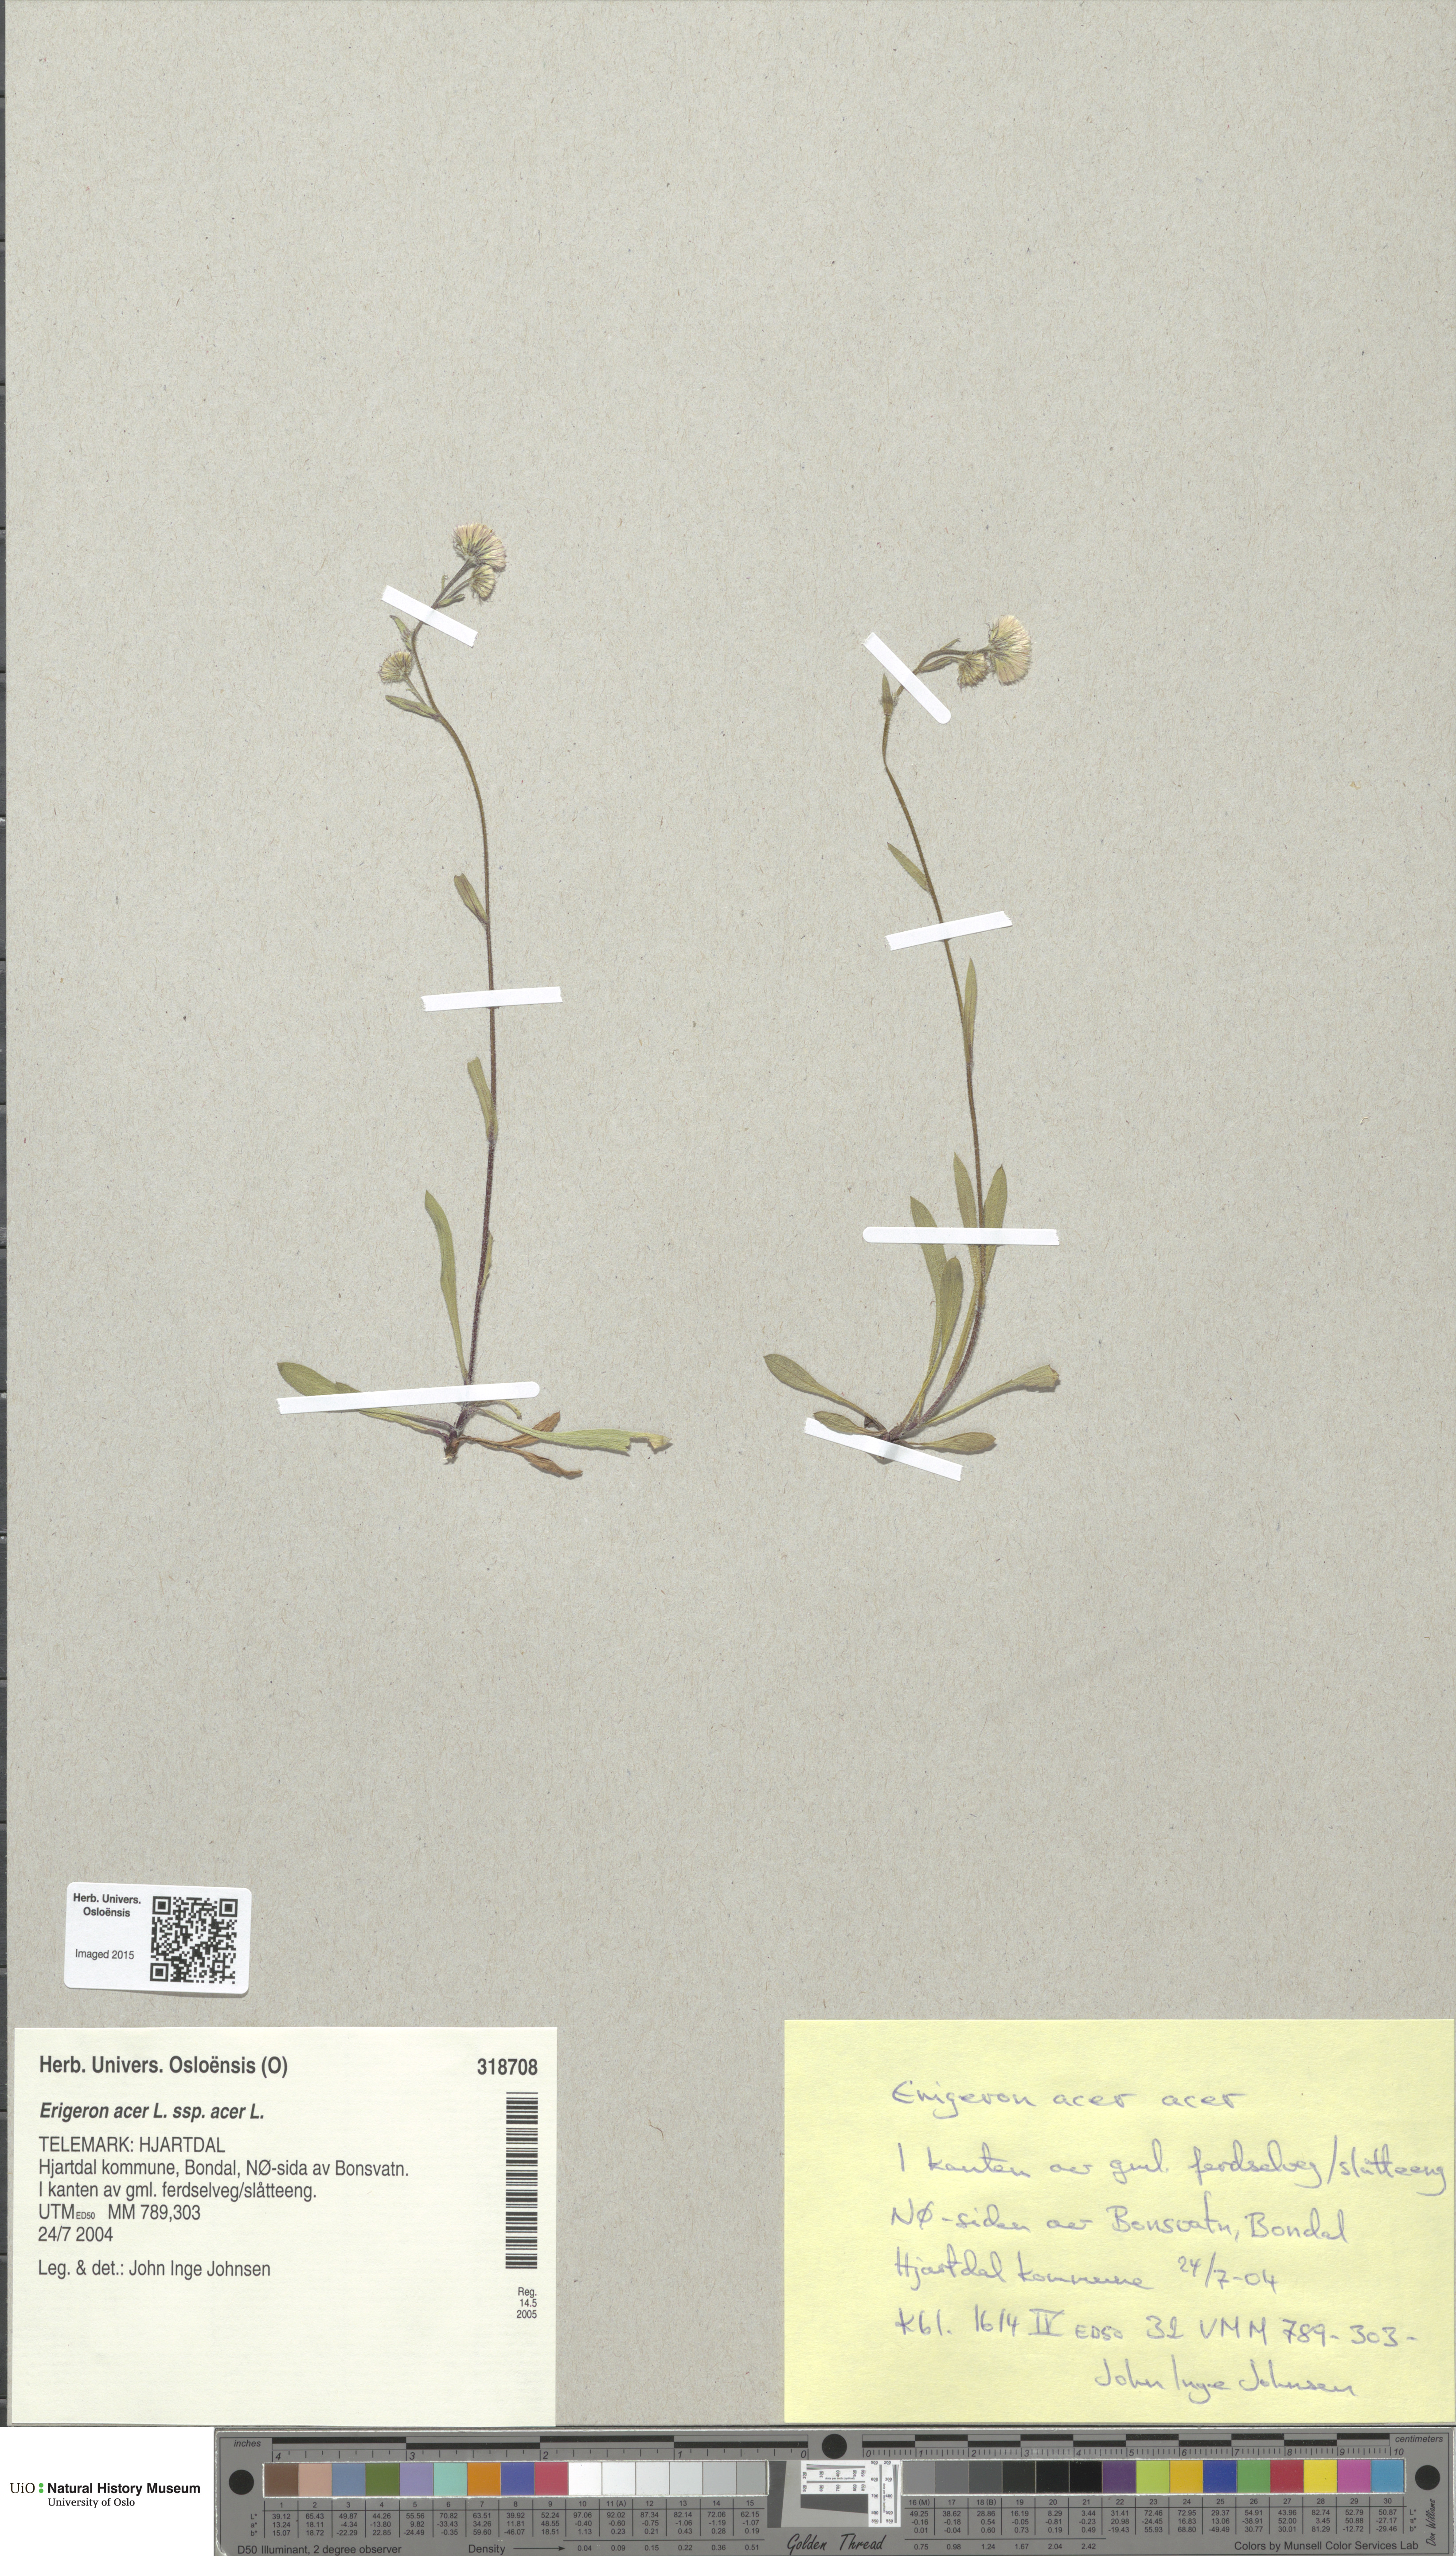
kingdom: Plantae
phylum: Tracheophyta
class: Magnoliopsida
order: Asterales
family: Asteraceae
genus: Erigeron
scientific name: Erigeron acris
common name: Blue fleabane
